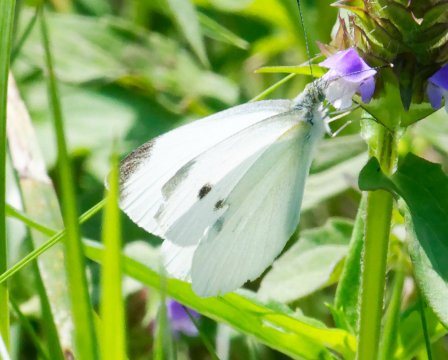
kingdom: Animalia
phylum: Arthropoda
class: Insecta
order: Lepidoptera
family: Pieridae
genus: Pieris
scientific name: Pieris rapae
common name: Cabbage White
